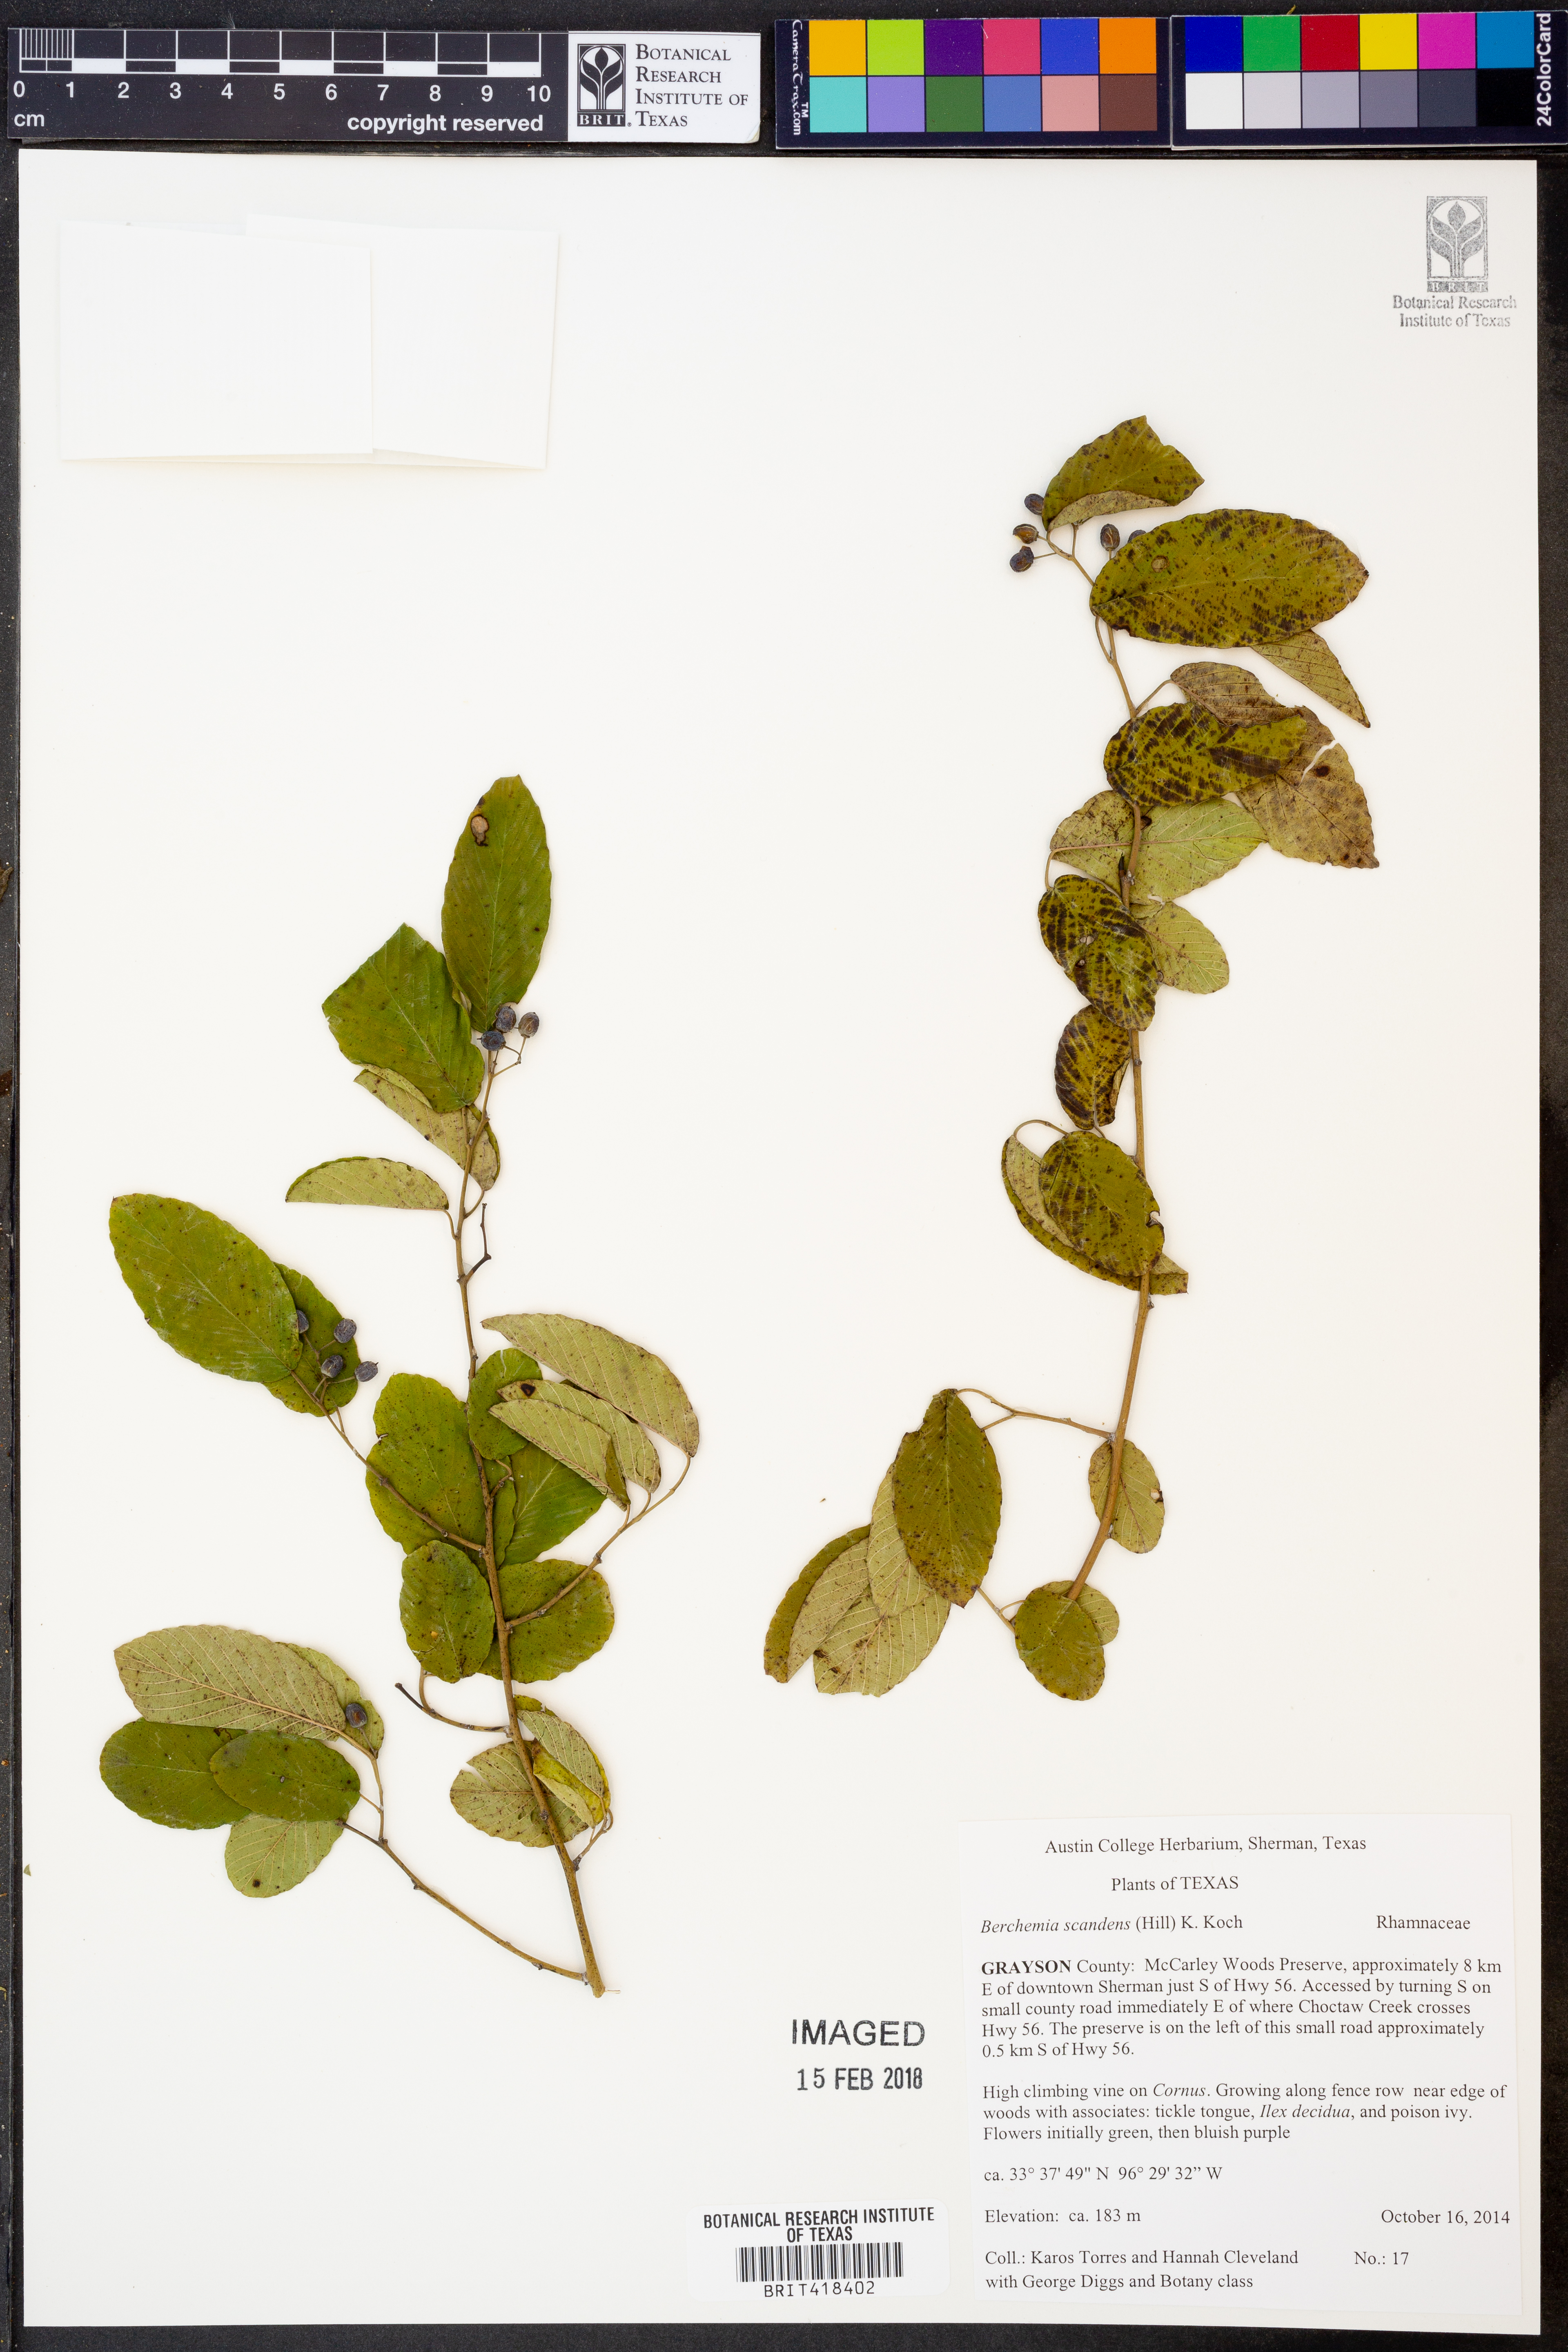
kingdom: Plantae
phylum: Tracheophyta
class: Magnoliopsida
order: Rosales
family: Rhamnaceae
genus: Berchemia
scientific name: Berchemia scandens
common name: Supplejack
